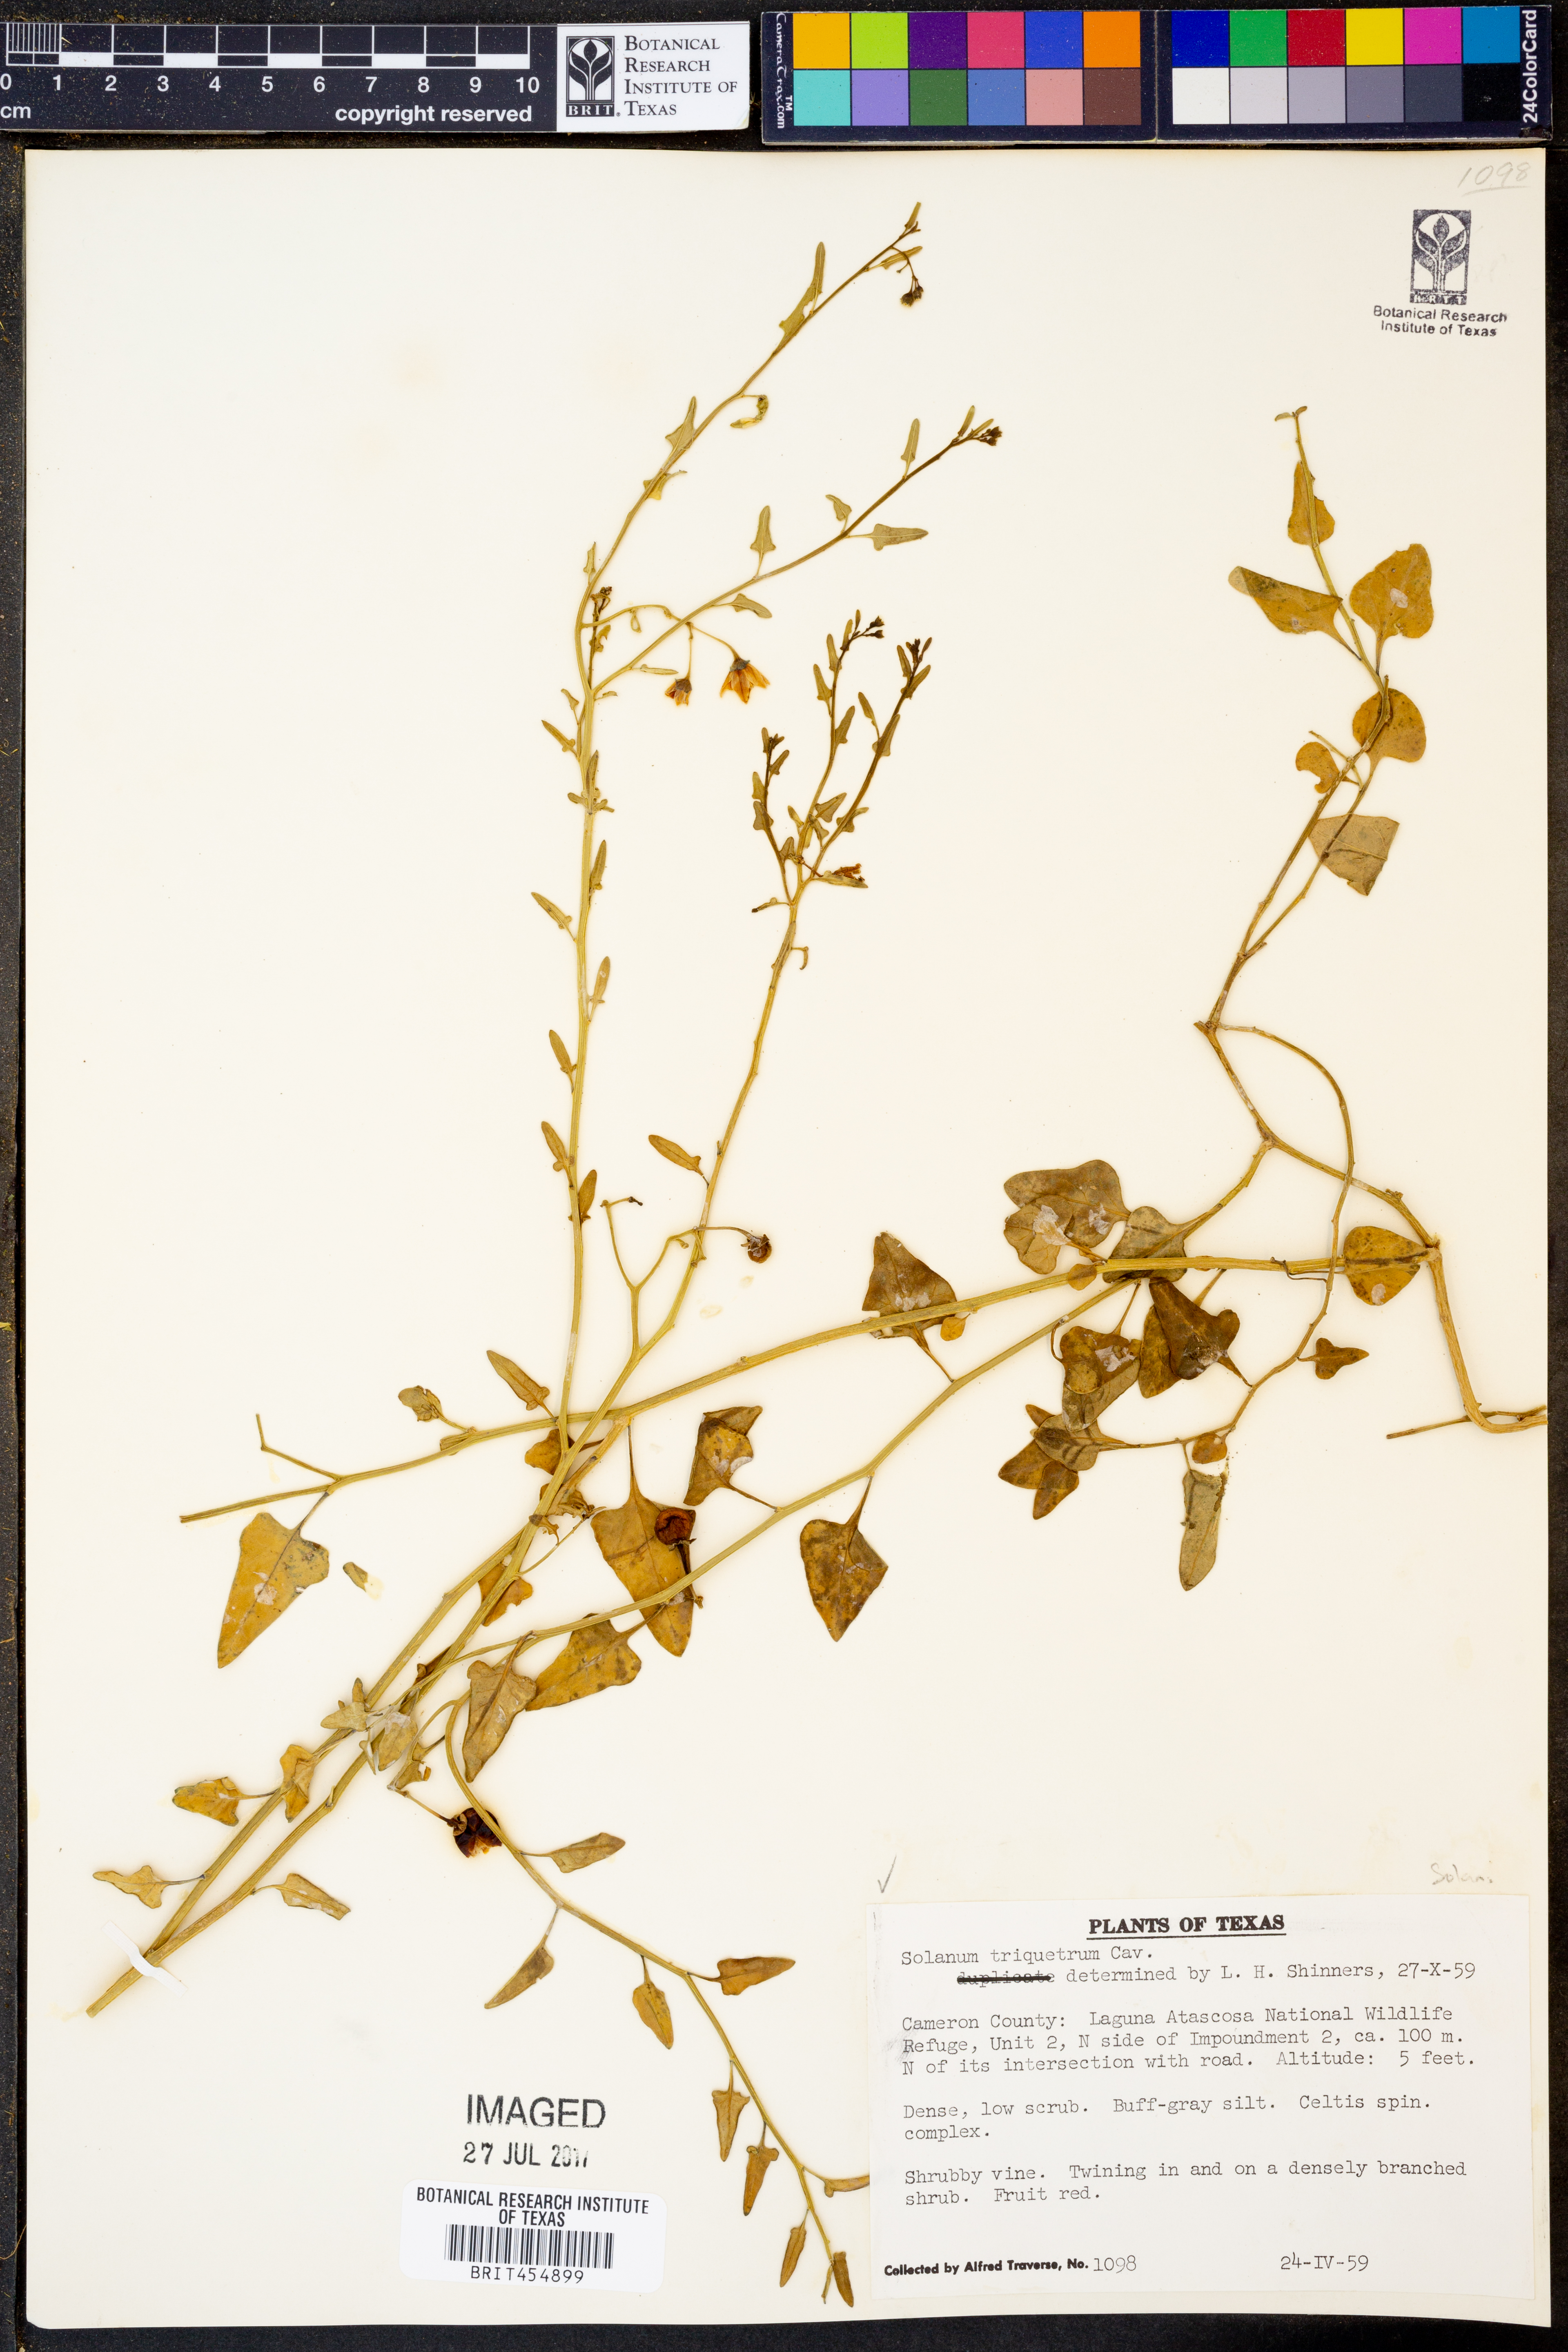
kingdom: Plantae
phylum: Tracheophyta
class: Magnoliopsida
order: Solanales
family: Solanaceae
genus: Solanum
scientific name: Solanum triquetrum
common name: Texas nightshade
